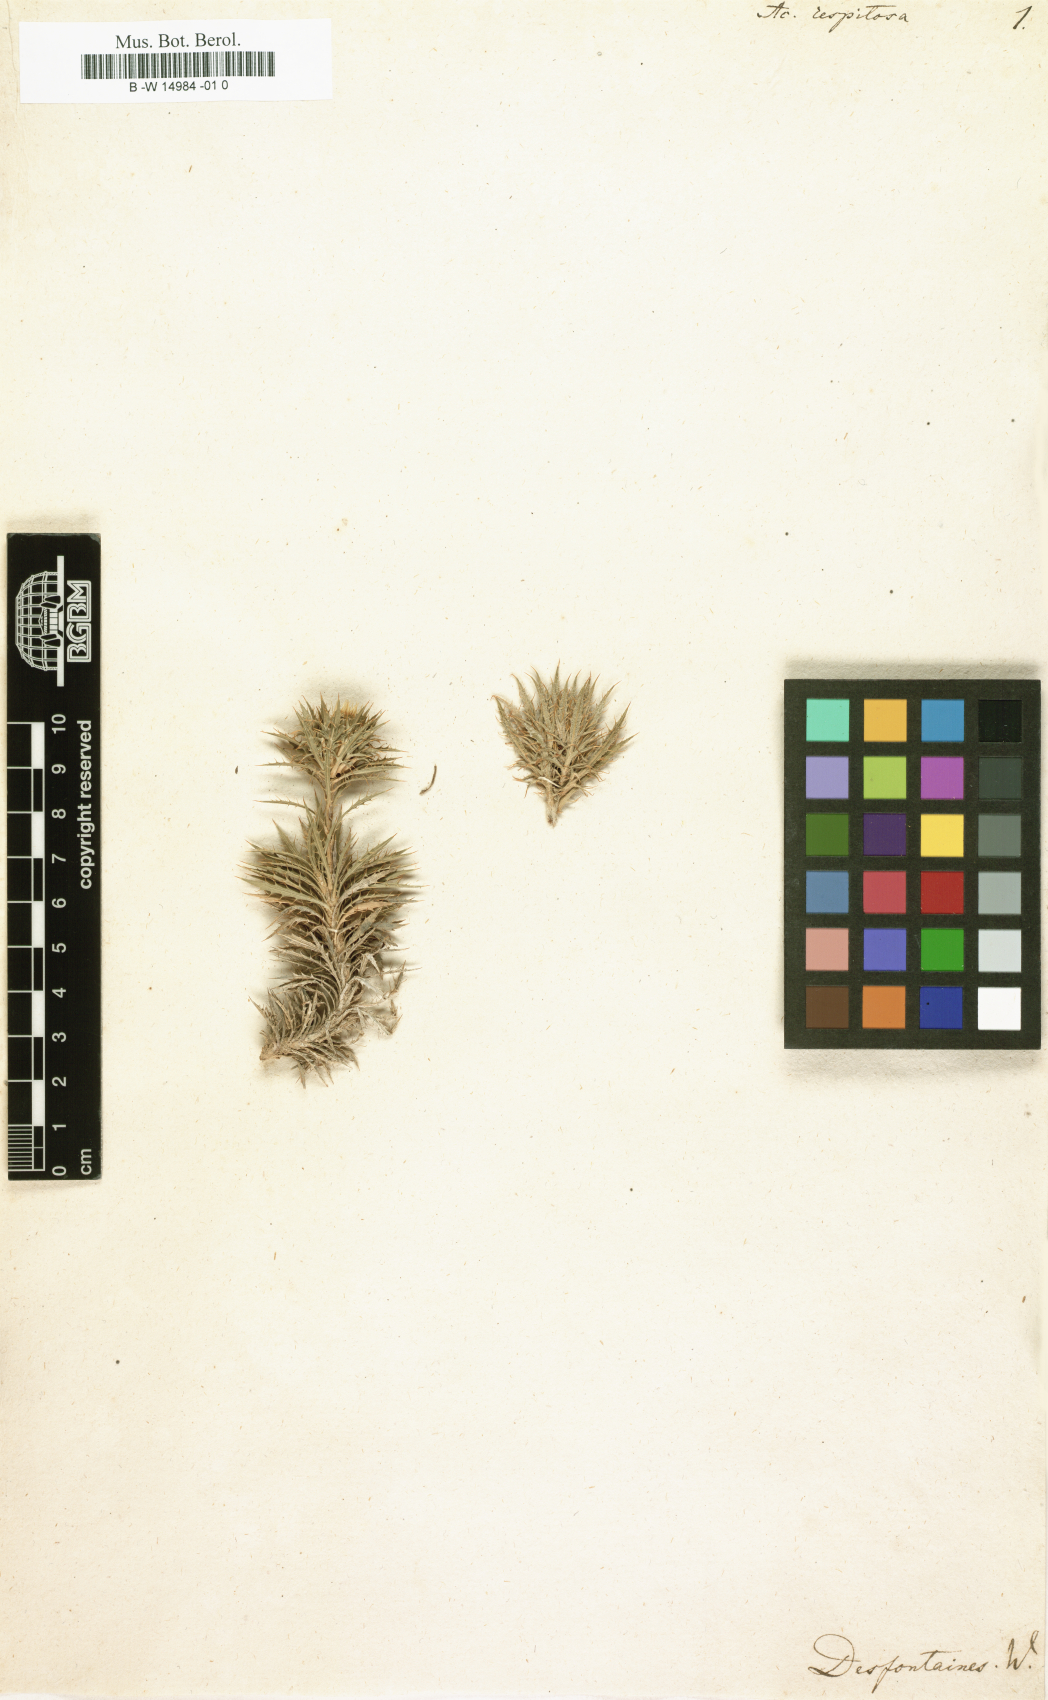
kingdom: Plantae
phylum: Tracheophyta
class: Magnoliopsida
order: Asterales
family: Asteraceae
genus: Atractylis
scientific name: Atractylis caespitosa
